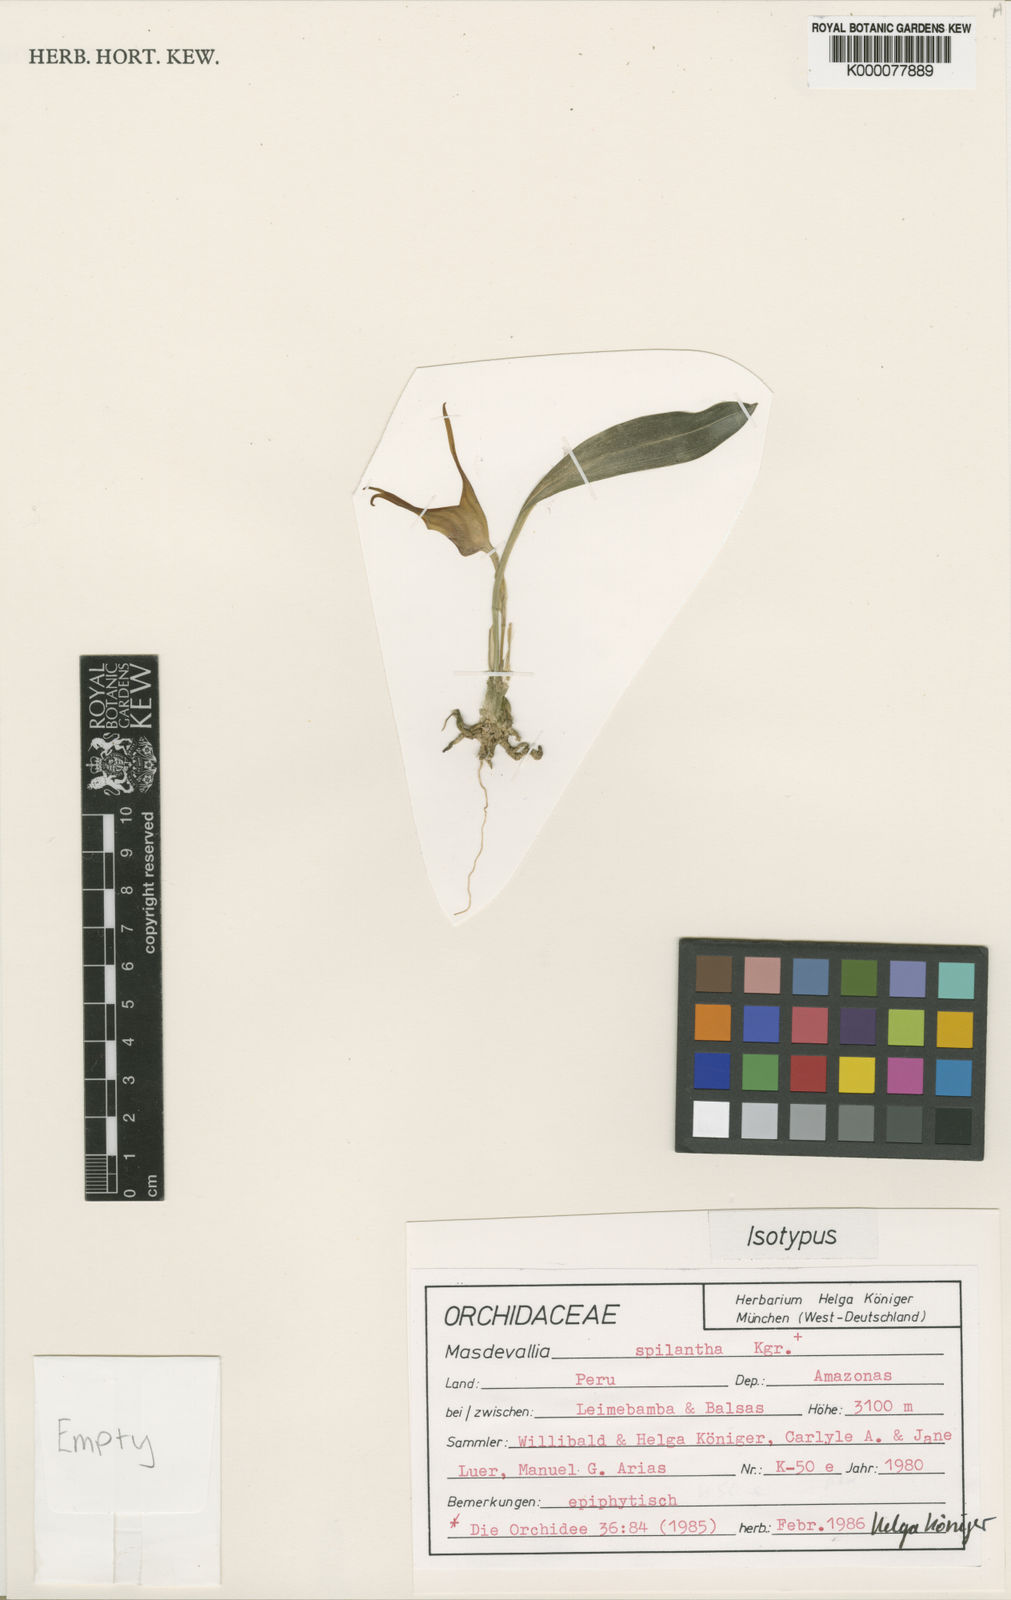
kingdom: Plantae
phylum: Tracheophyta
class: Liliopsida
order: Asparagales
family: Orchidaceae
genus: Masdevallia
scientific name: Masdevallia
